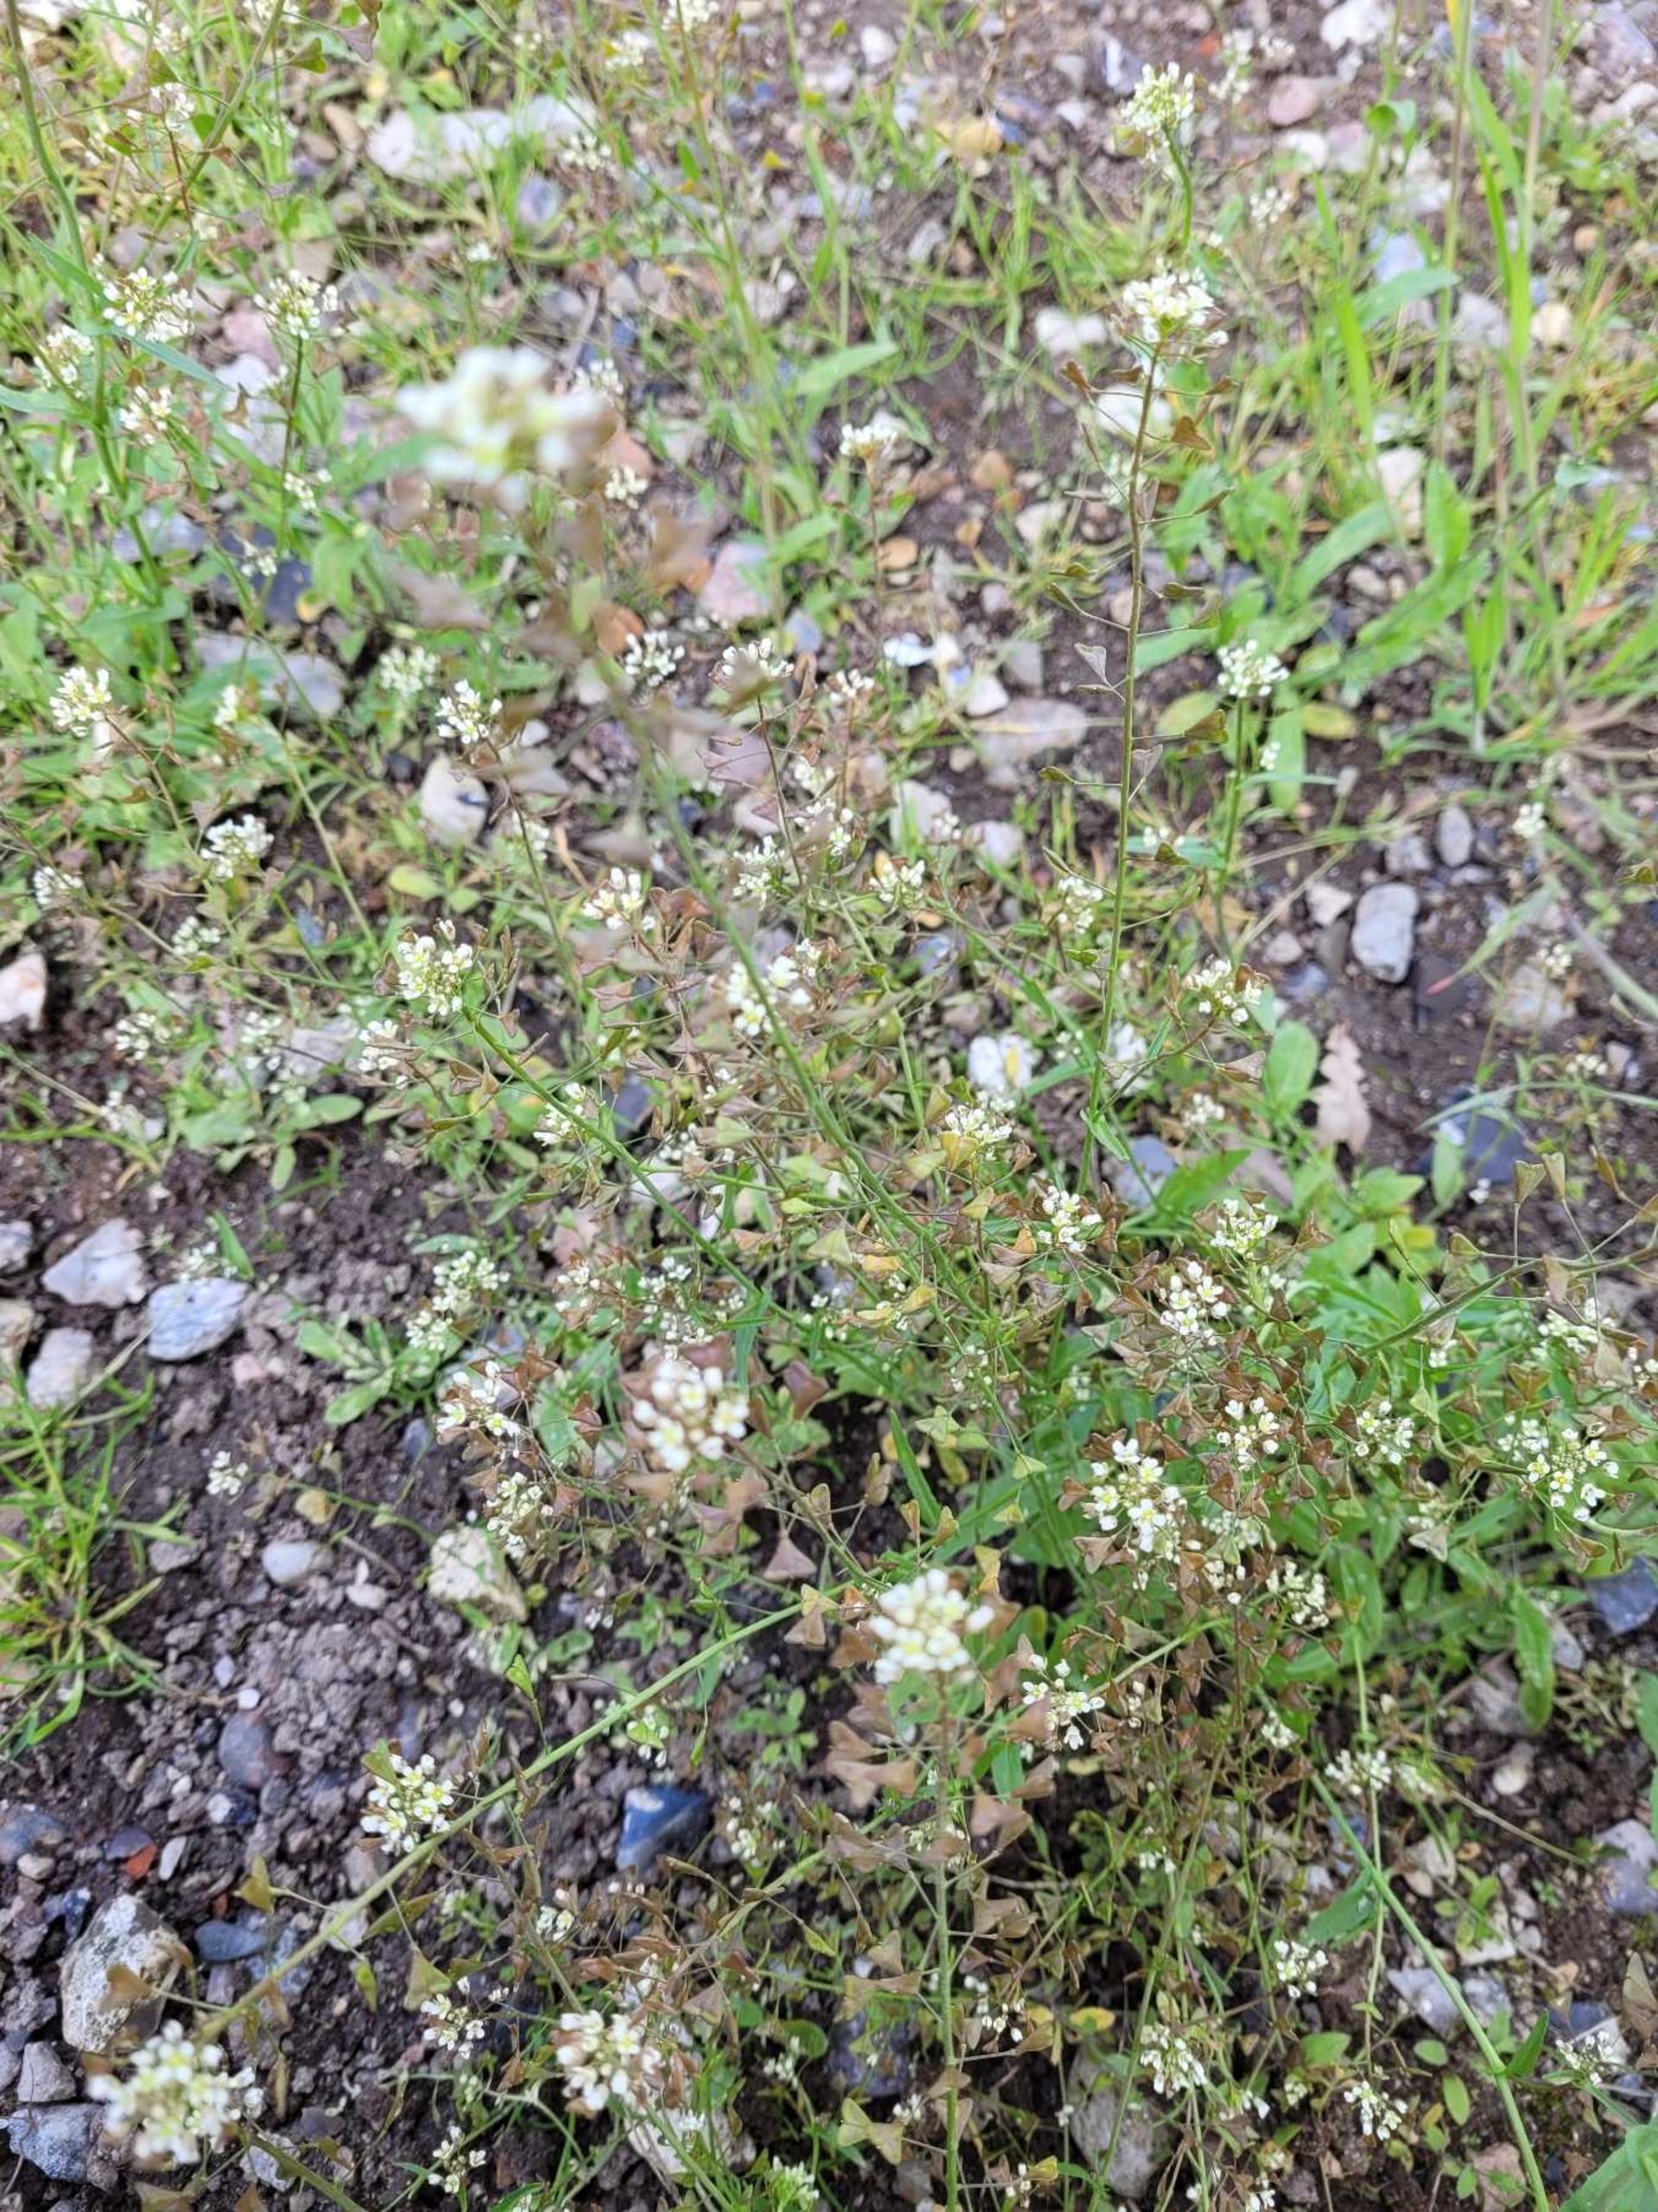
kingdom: Plantae
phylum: Tracheophyta
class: Magnoliopsida
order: Brassicales
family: Brassicaceae
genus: Capsella
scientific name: Capsella bursa-pastoris
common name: Hyrdetaske
